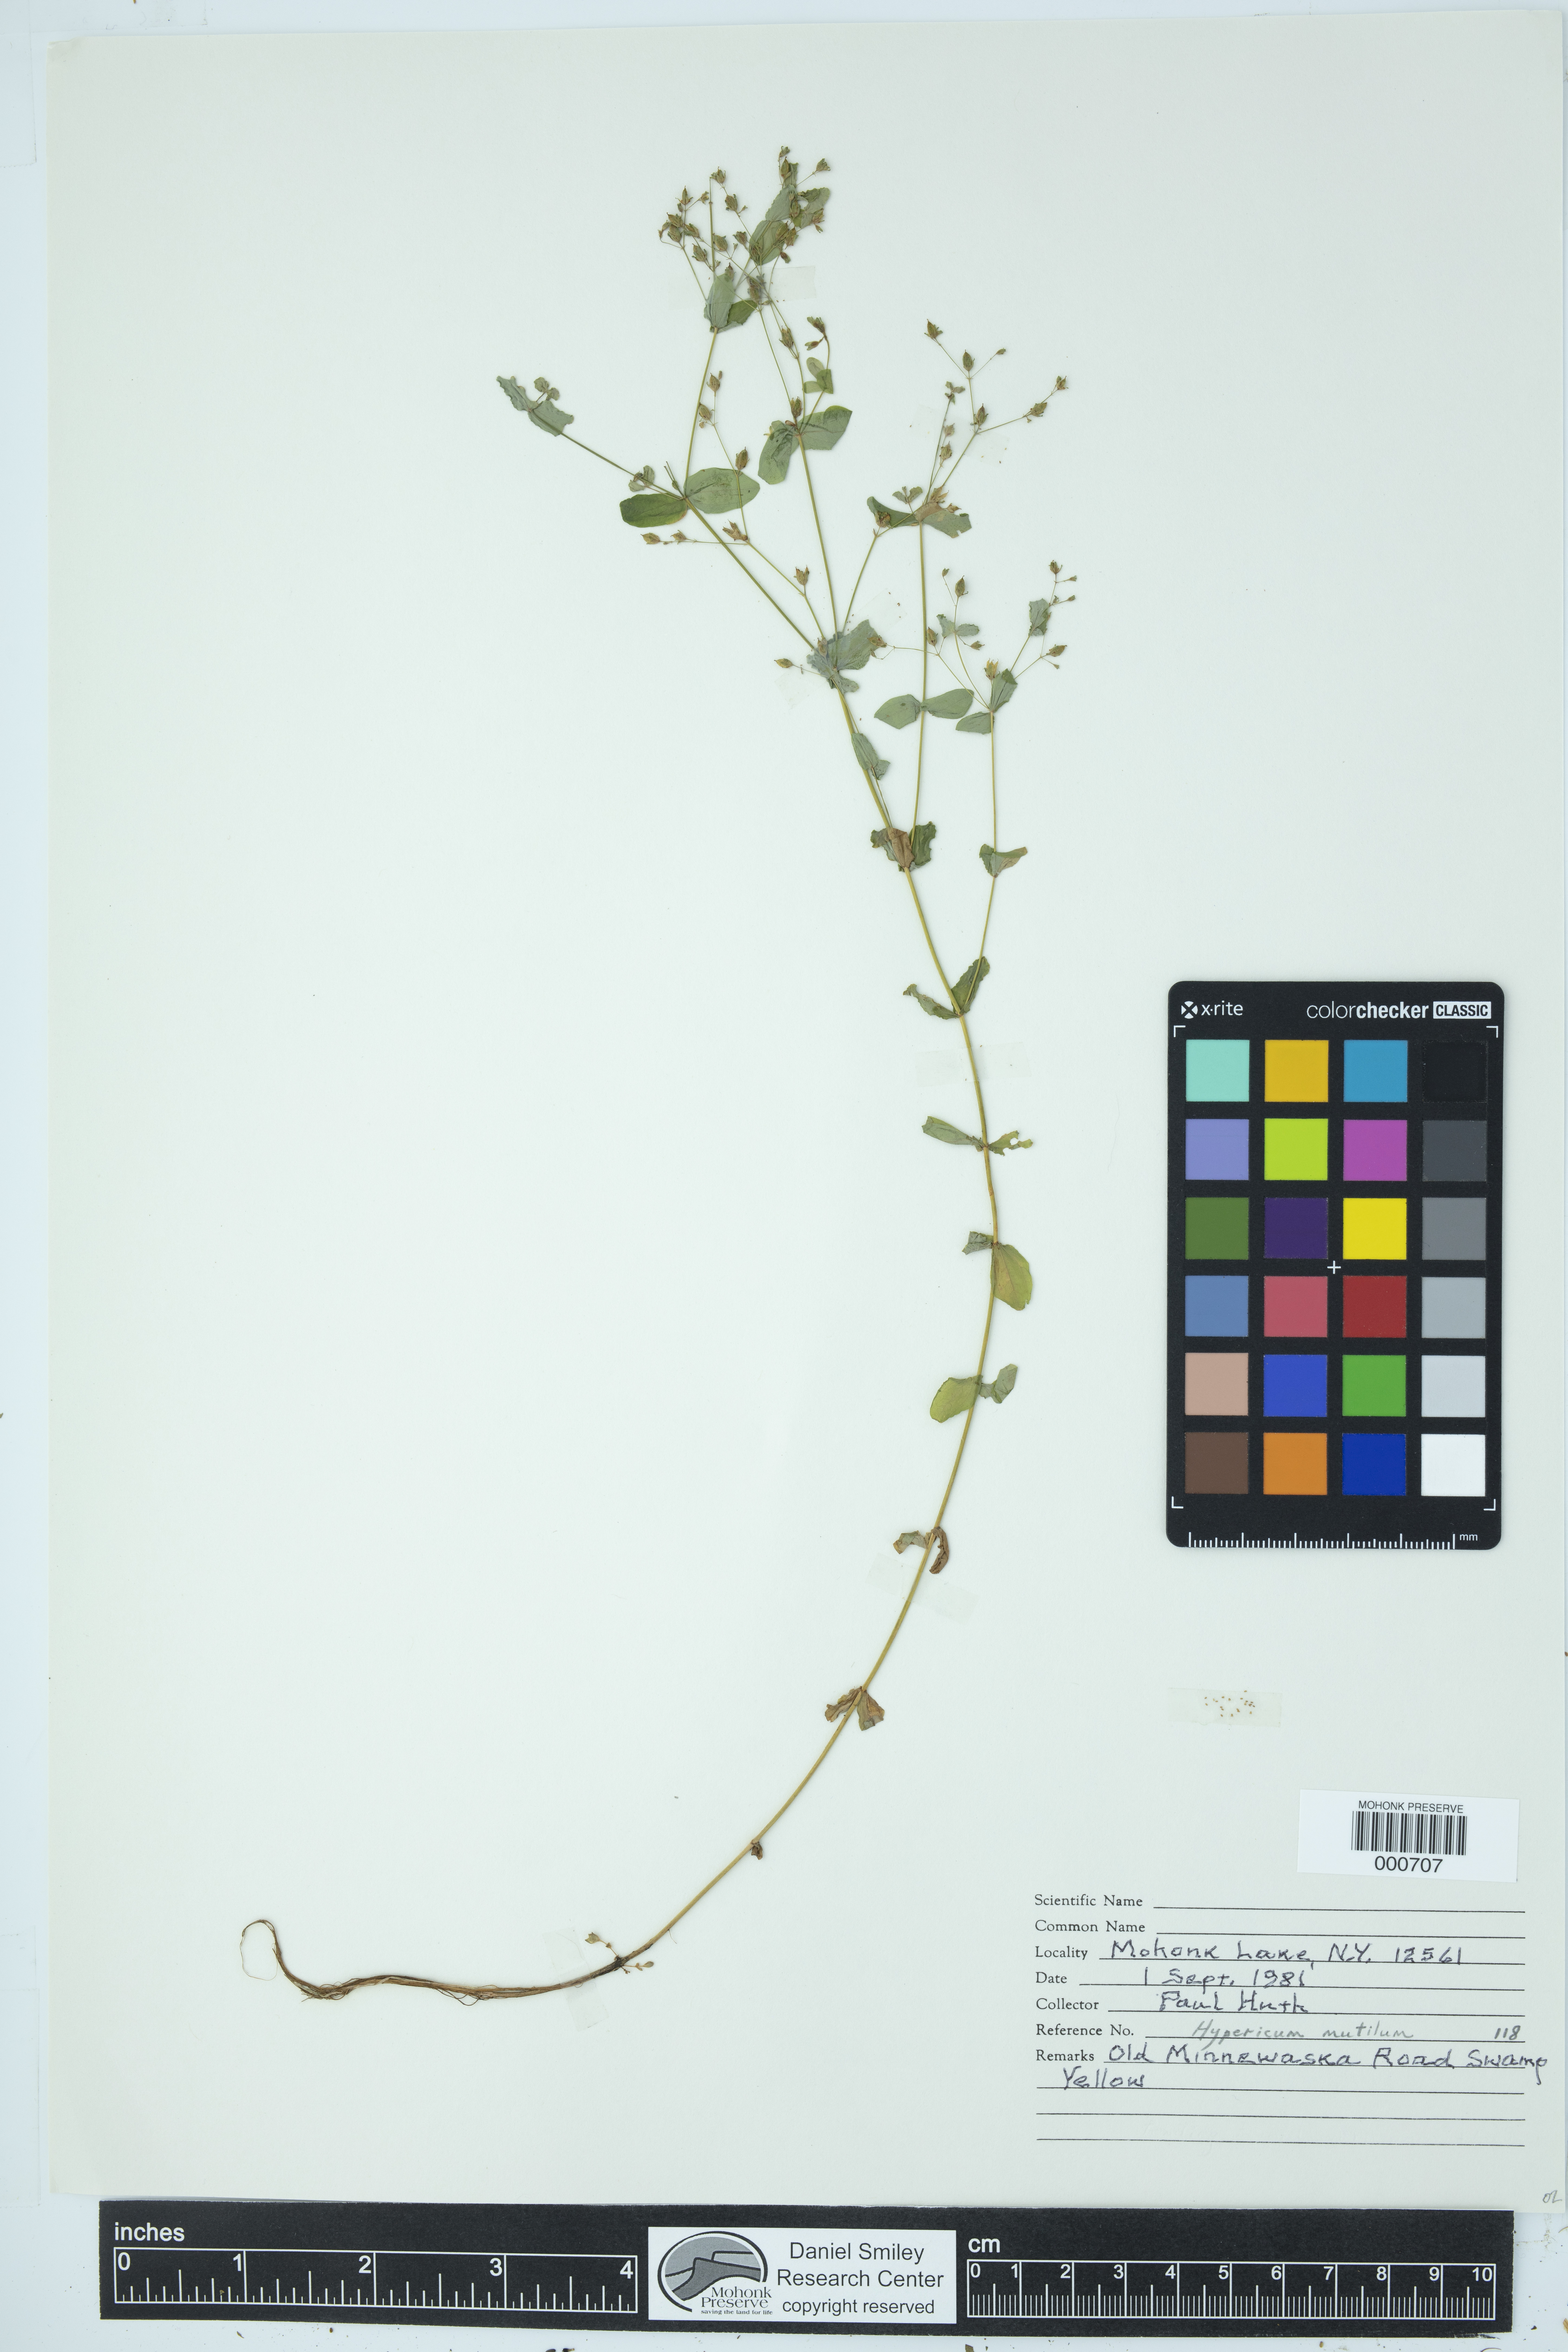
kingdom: Plantae
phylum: Tracheophyta
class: Magnoliopsida
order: Malpighiales
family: Hypericaceae
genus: Hypericum
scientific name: Hypericum mutilum
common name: Dwarf st. john's-wort
